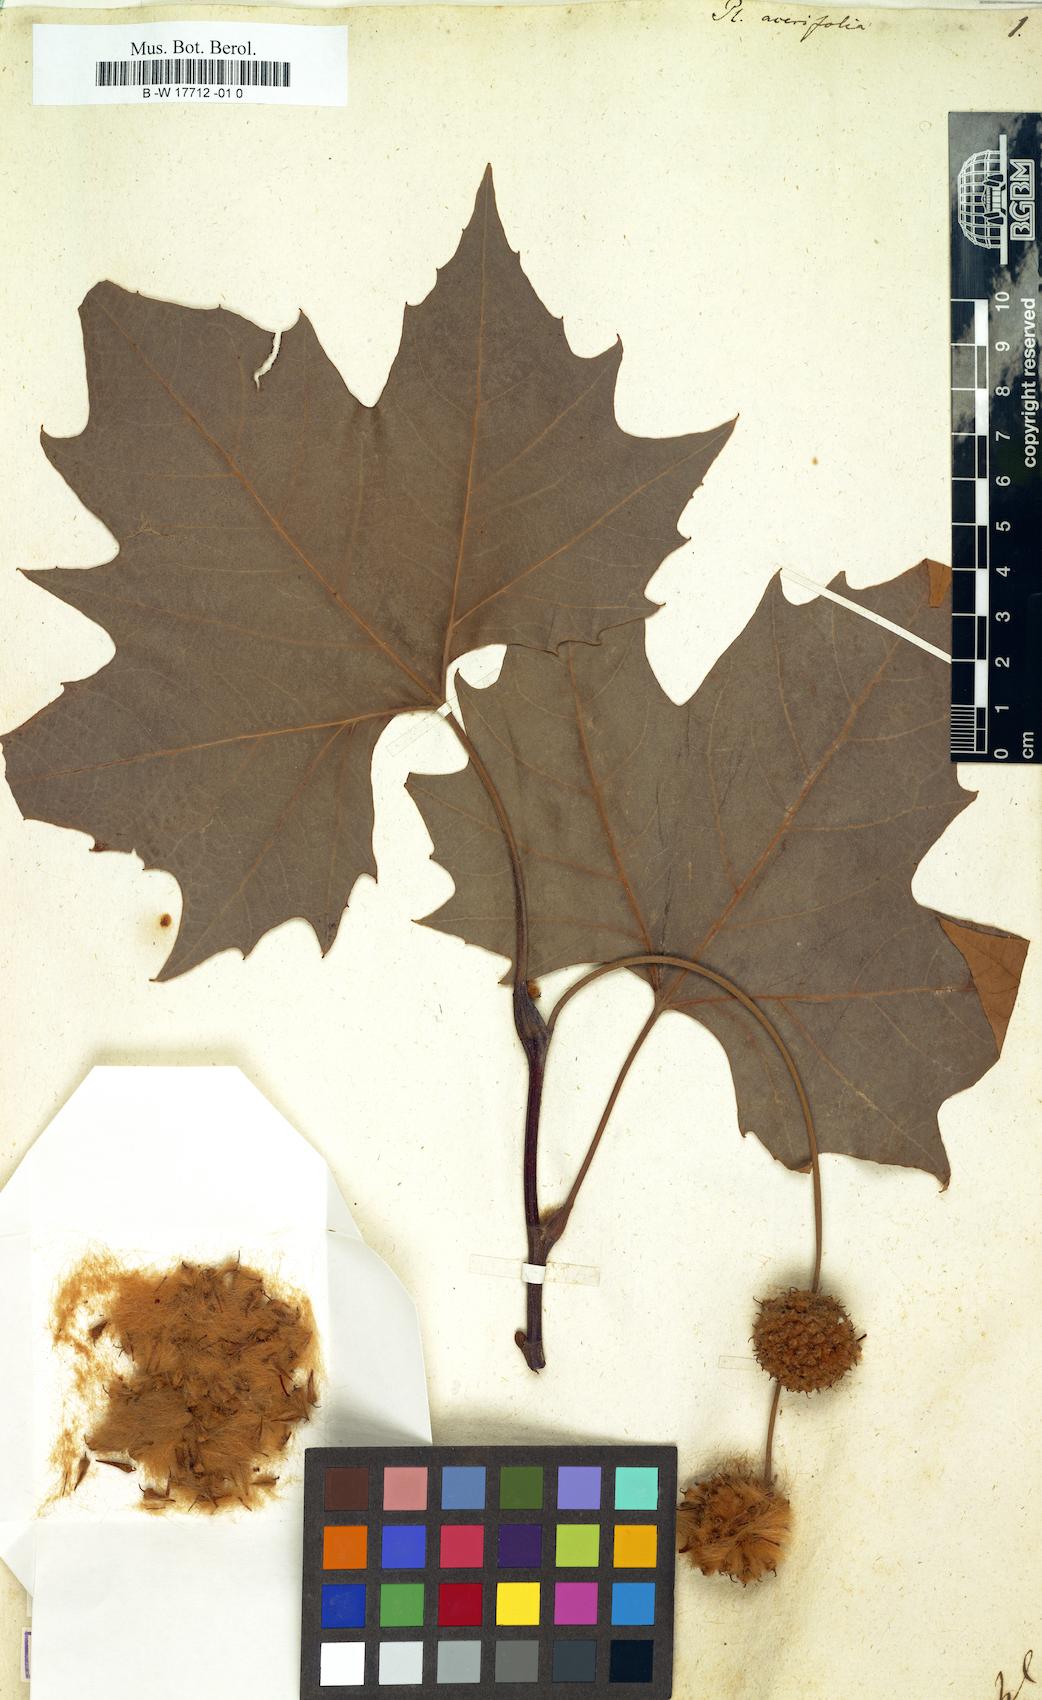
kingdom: Plantae
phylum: Tracheophyta
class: Magnoliopsida
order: Proteales
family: Platanaceae
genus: Platanus
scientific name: Platanus hispanica
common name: London plane
